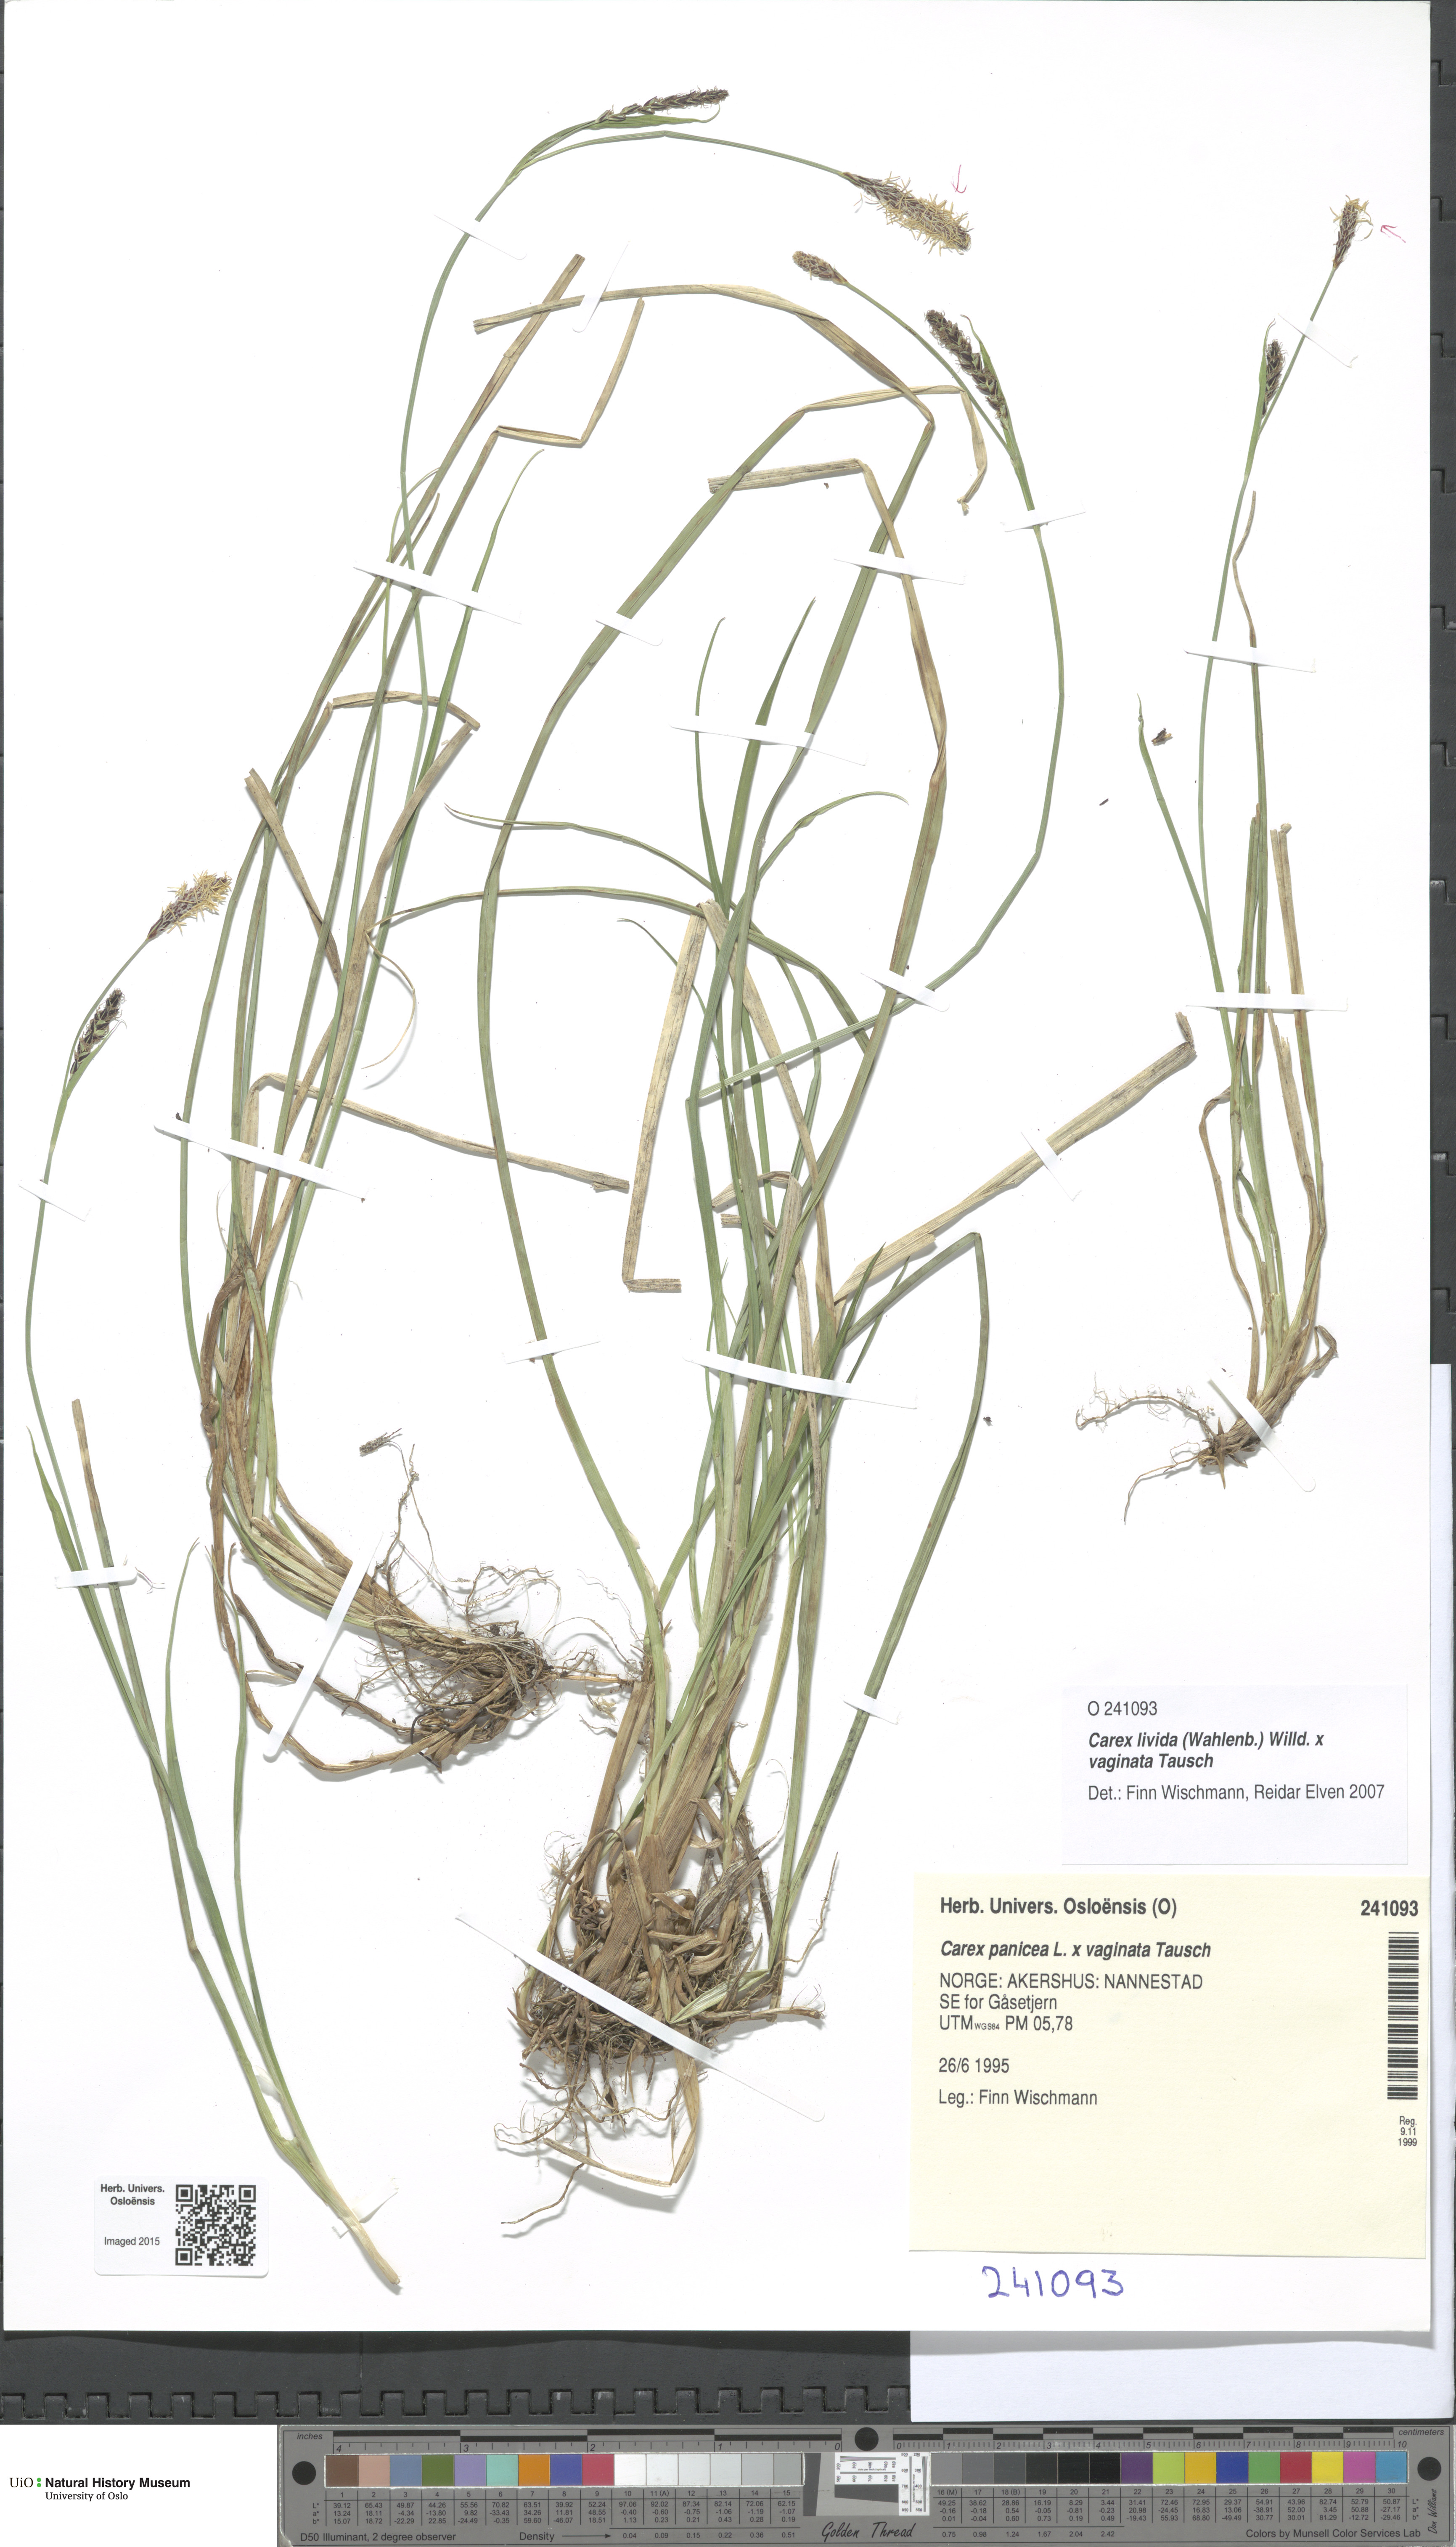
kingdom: Plantae
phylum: Tracheophyta
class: Liliopsida
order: Poales
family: Cyperaceae
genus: Carex
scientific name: Carex
